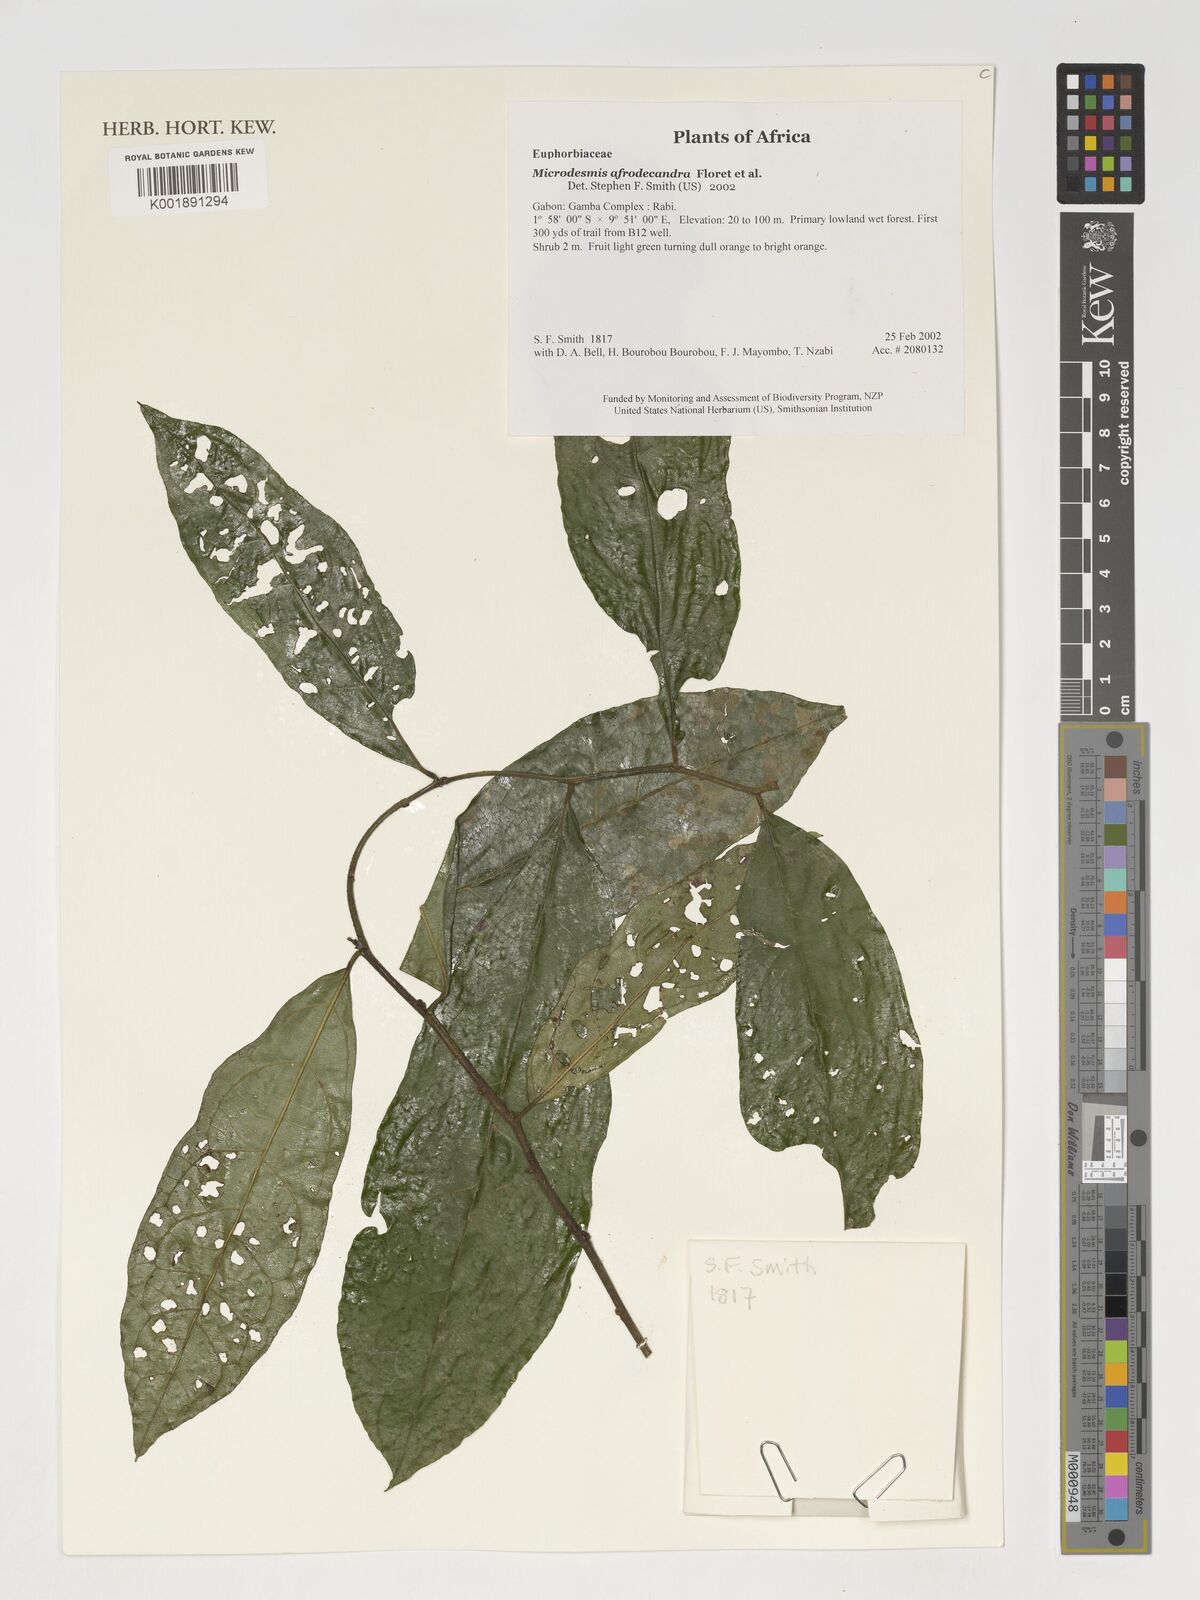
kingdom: Plantae
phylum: Tracheophyta
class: Magnoliopsida
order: Malpighiales
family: Pandaceae
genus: Microdesmis
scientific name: Microdesmis afrodecandra
